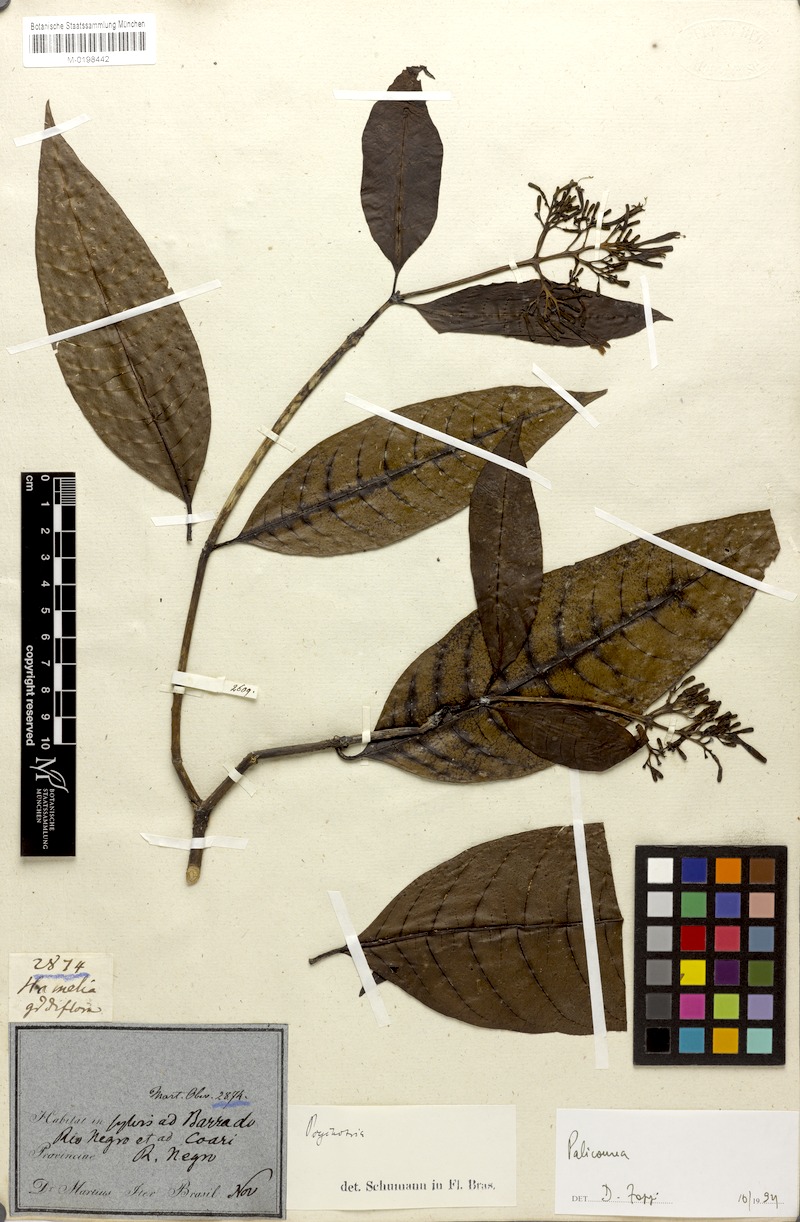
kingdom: Plantae
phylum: Tracheophyta
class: Magnoliopsida
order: Gentianales
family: Rubiaceae
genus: Palicourea
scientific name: Palicourea
